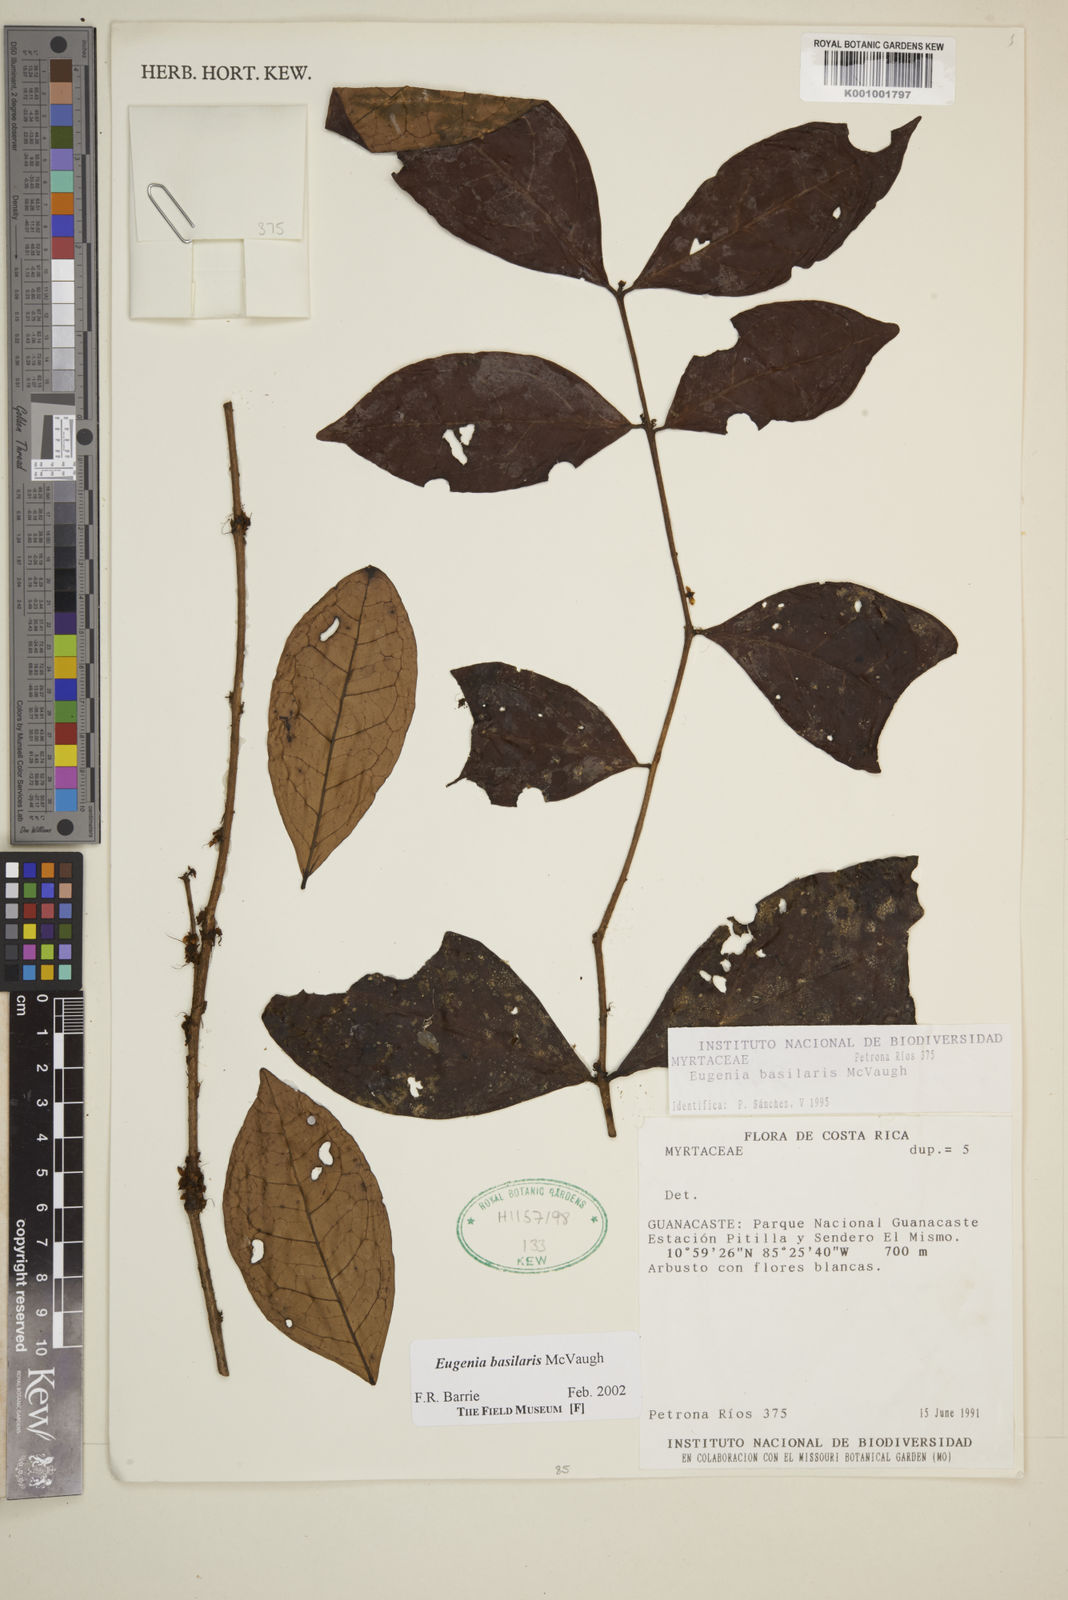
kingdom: Plantae
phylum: Tracheophyta
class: Magnoliopsida
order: Myrtales
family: Myrtaceae
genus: Eugenia
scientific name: Eugenia basilaris
